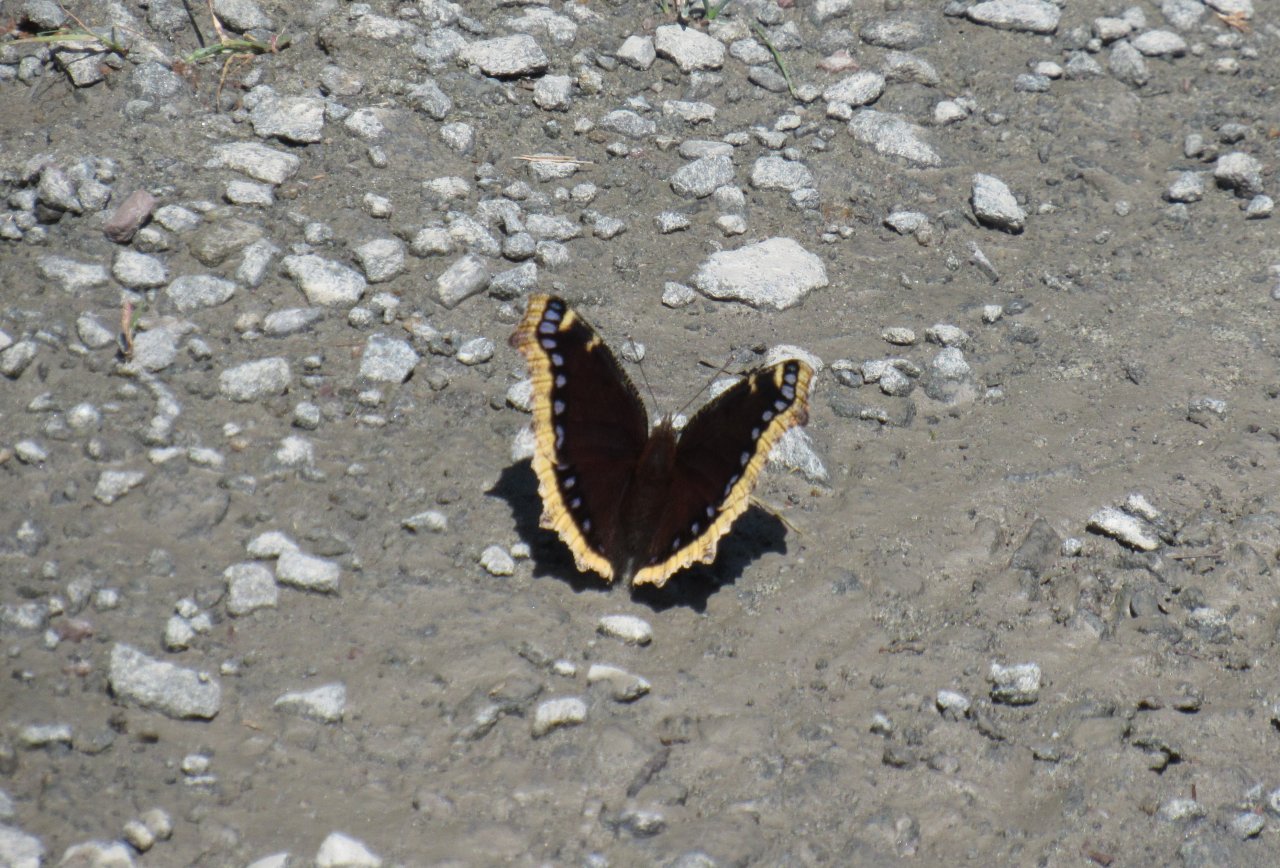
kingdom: Animalia
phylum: Arthropoda
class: Insecta
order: Lepidoptera
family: Nymphalidae
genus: Nymphalis
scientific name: Nymphalis antiopa
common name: Mourning Cloak
